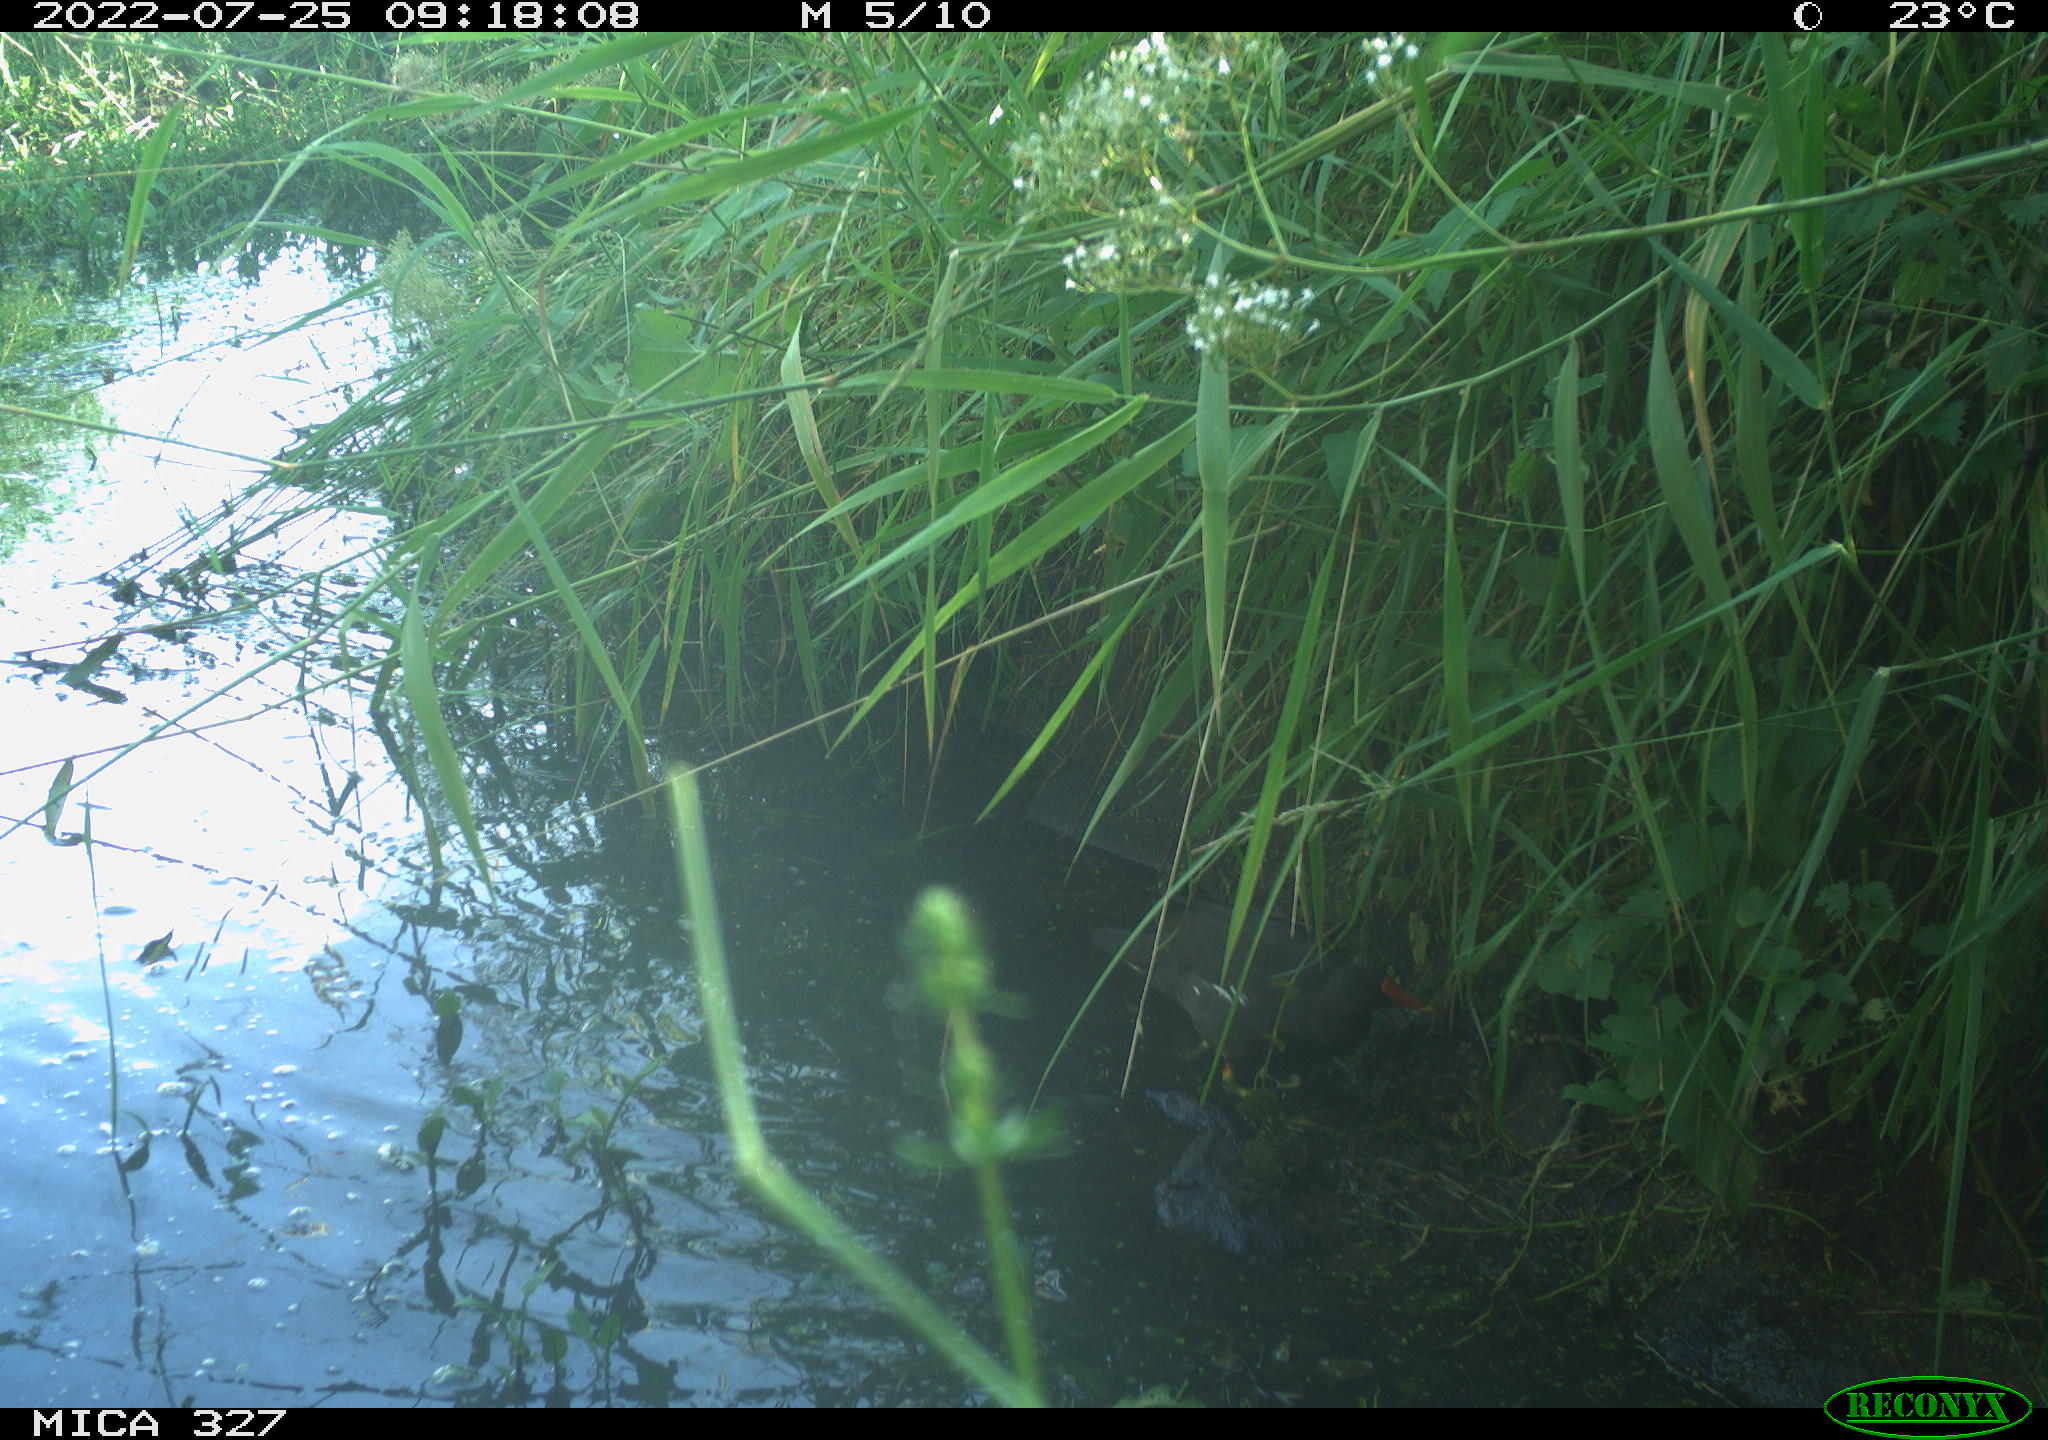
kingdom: Animalia
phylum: Chordata
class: Aves
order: Gruiformes
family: Rallidae
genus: Gallinula
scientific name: Gallinula chloropus
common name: Common moorhen
